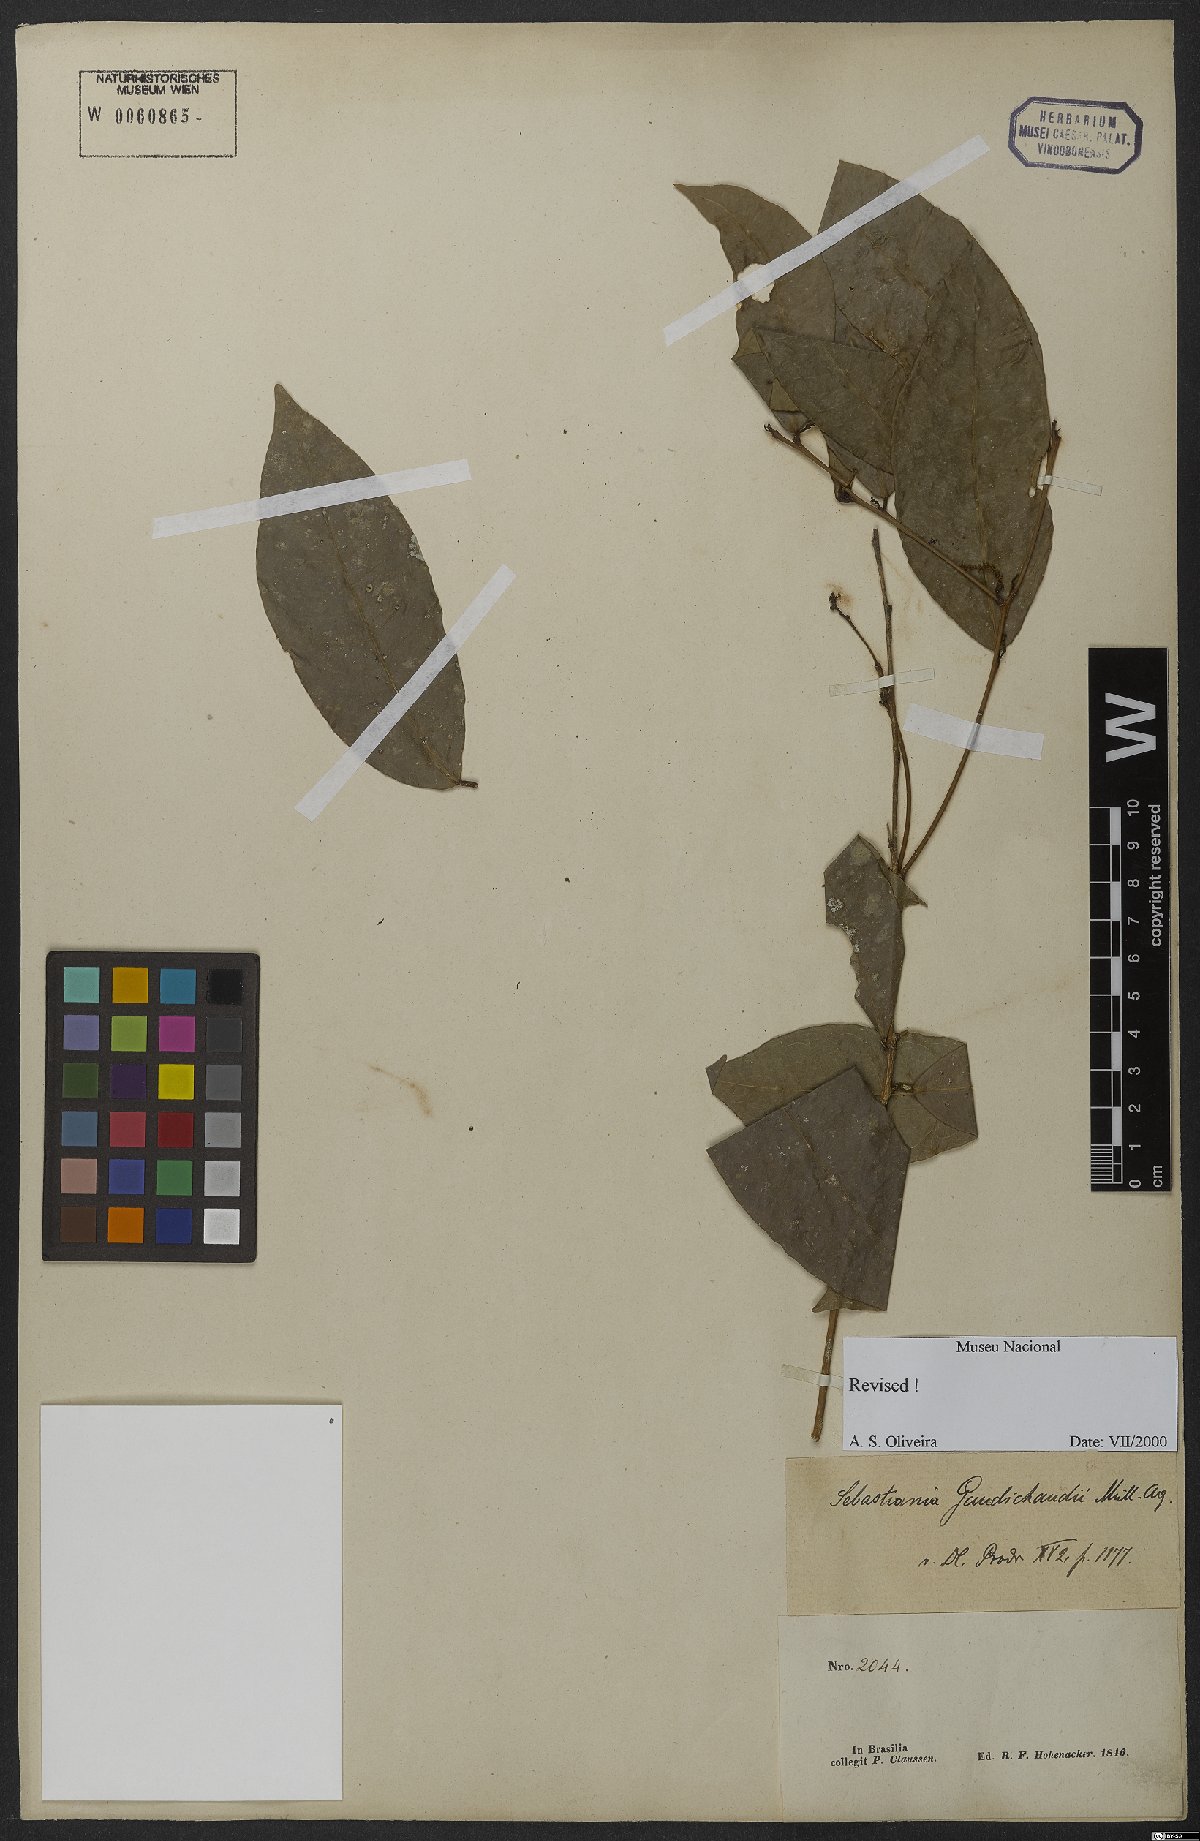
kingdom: Plantae
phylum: Tracheophyta
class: Magnoliopsida
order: Malpighiales
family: Euphorbiaceae
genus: Gymnanthes
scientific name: Gymnanthes gaudichaudii
